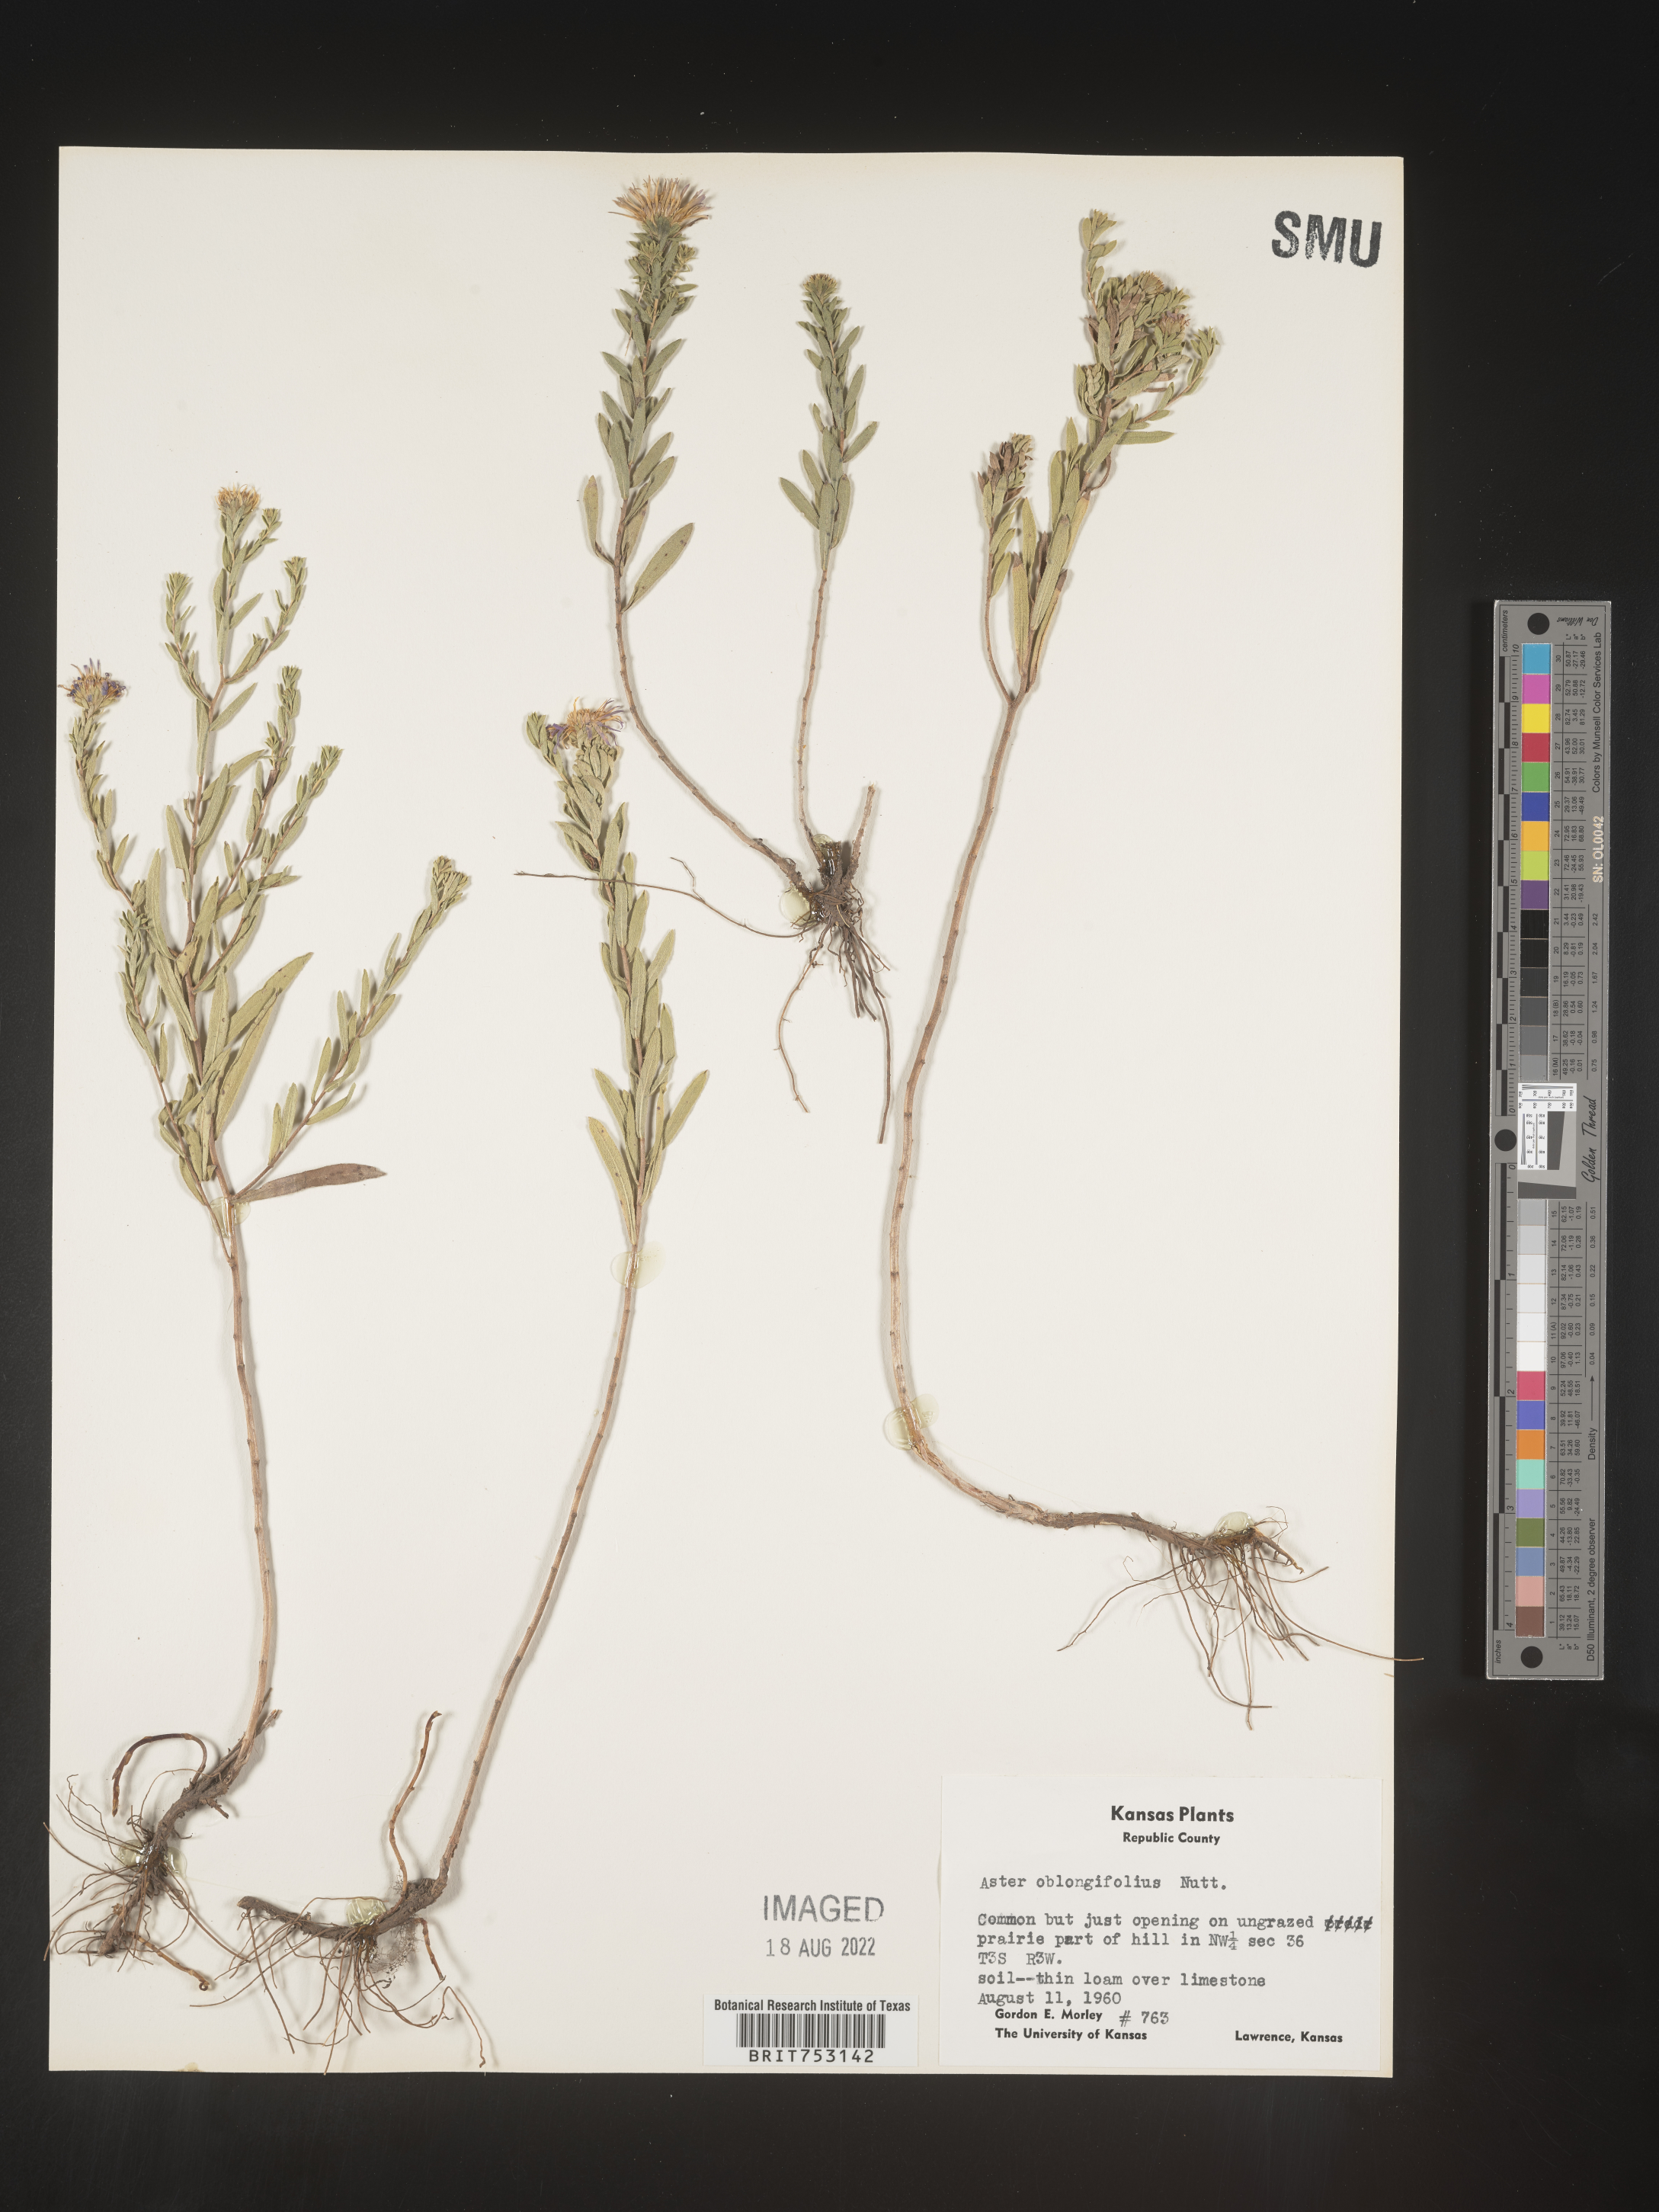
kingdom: Plantae
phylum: Tracheophyta
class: Magnoliopsida
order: Asterales
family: Asteraceae
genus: Symphyotrichum
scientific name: Symphyotrichum oblongifolium
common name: Aromatic aster
